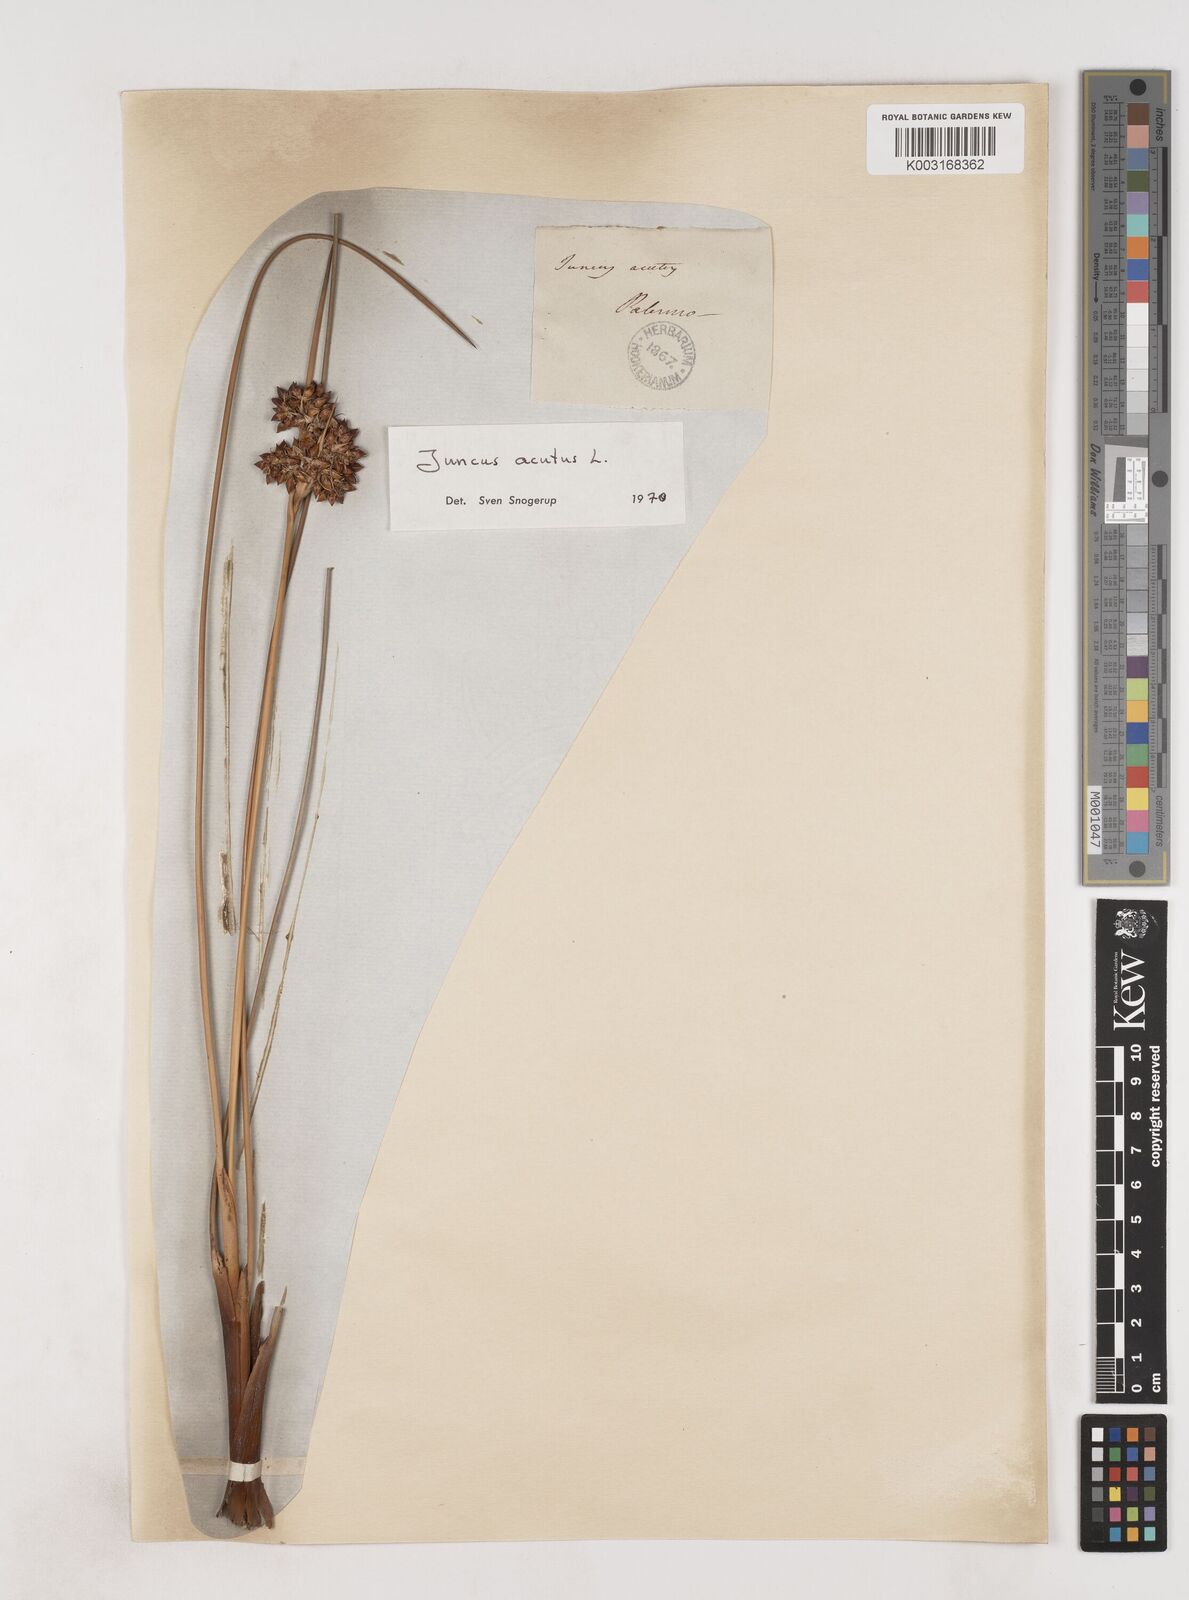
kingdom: Plantae
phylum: Tracheophyta
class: Liliopsida
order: Poales
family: Juncaceae
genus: Juncus
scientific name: Juncus acutus
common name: Sharp rush
